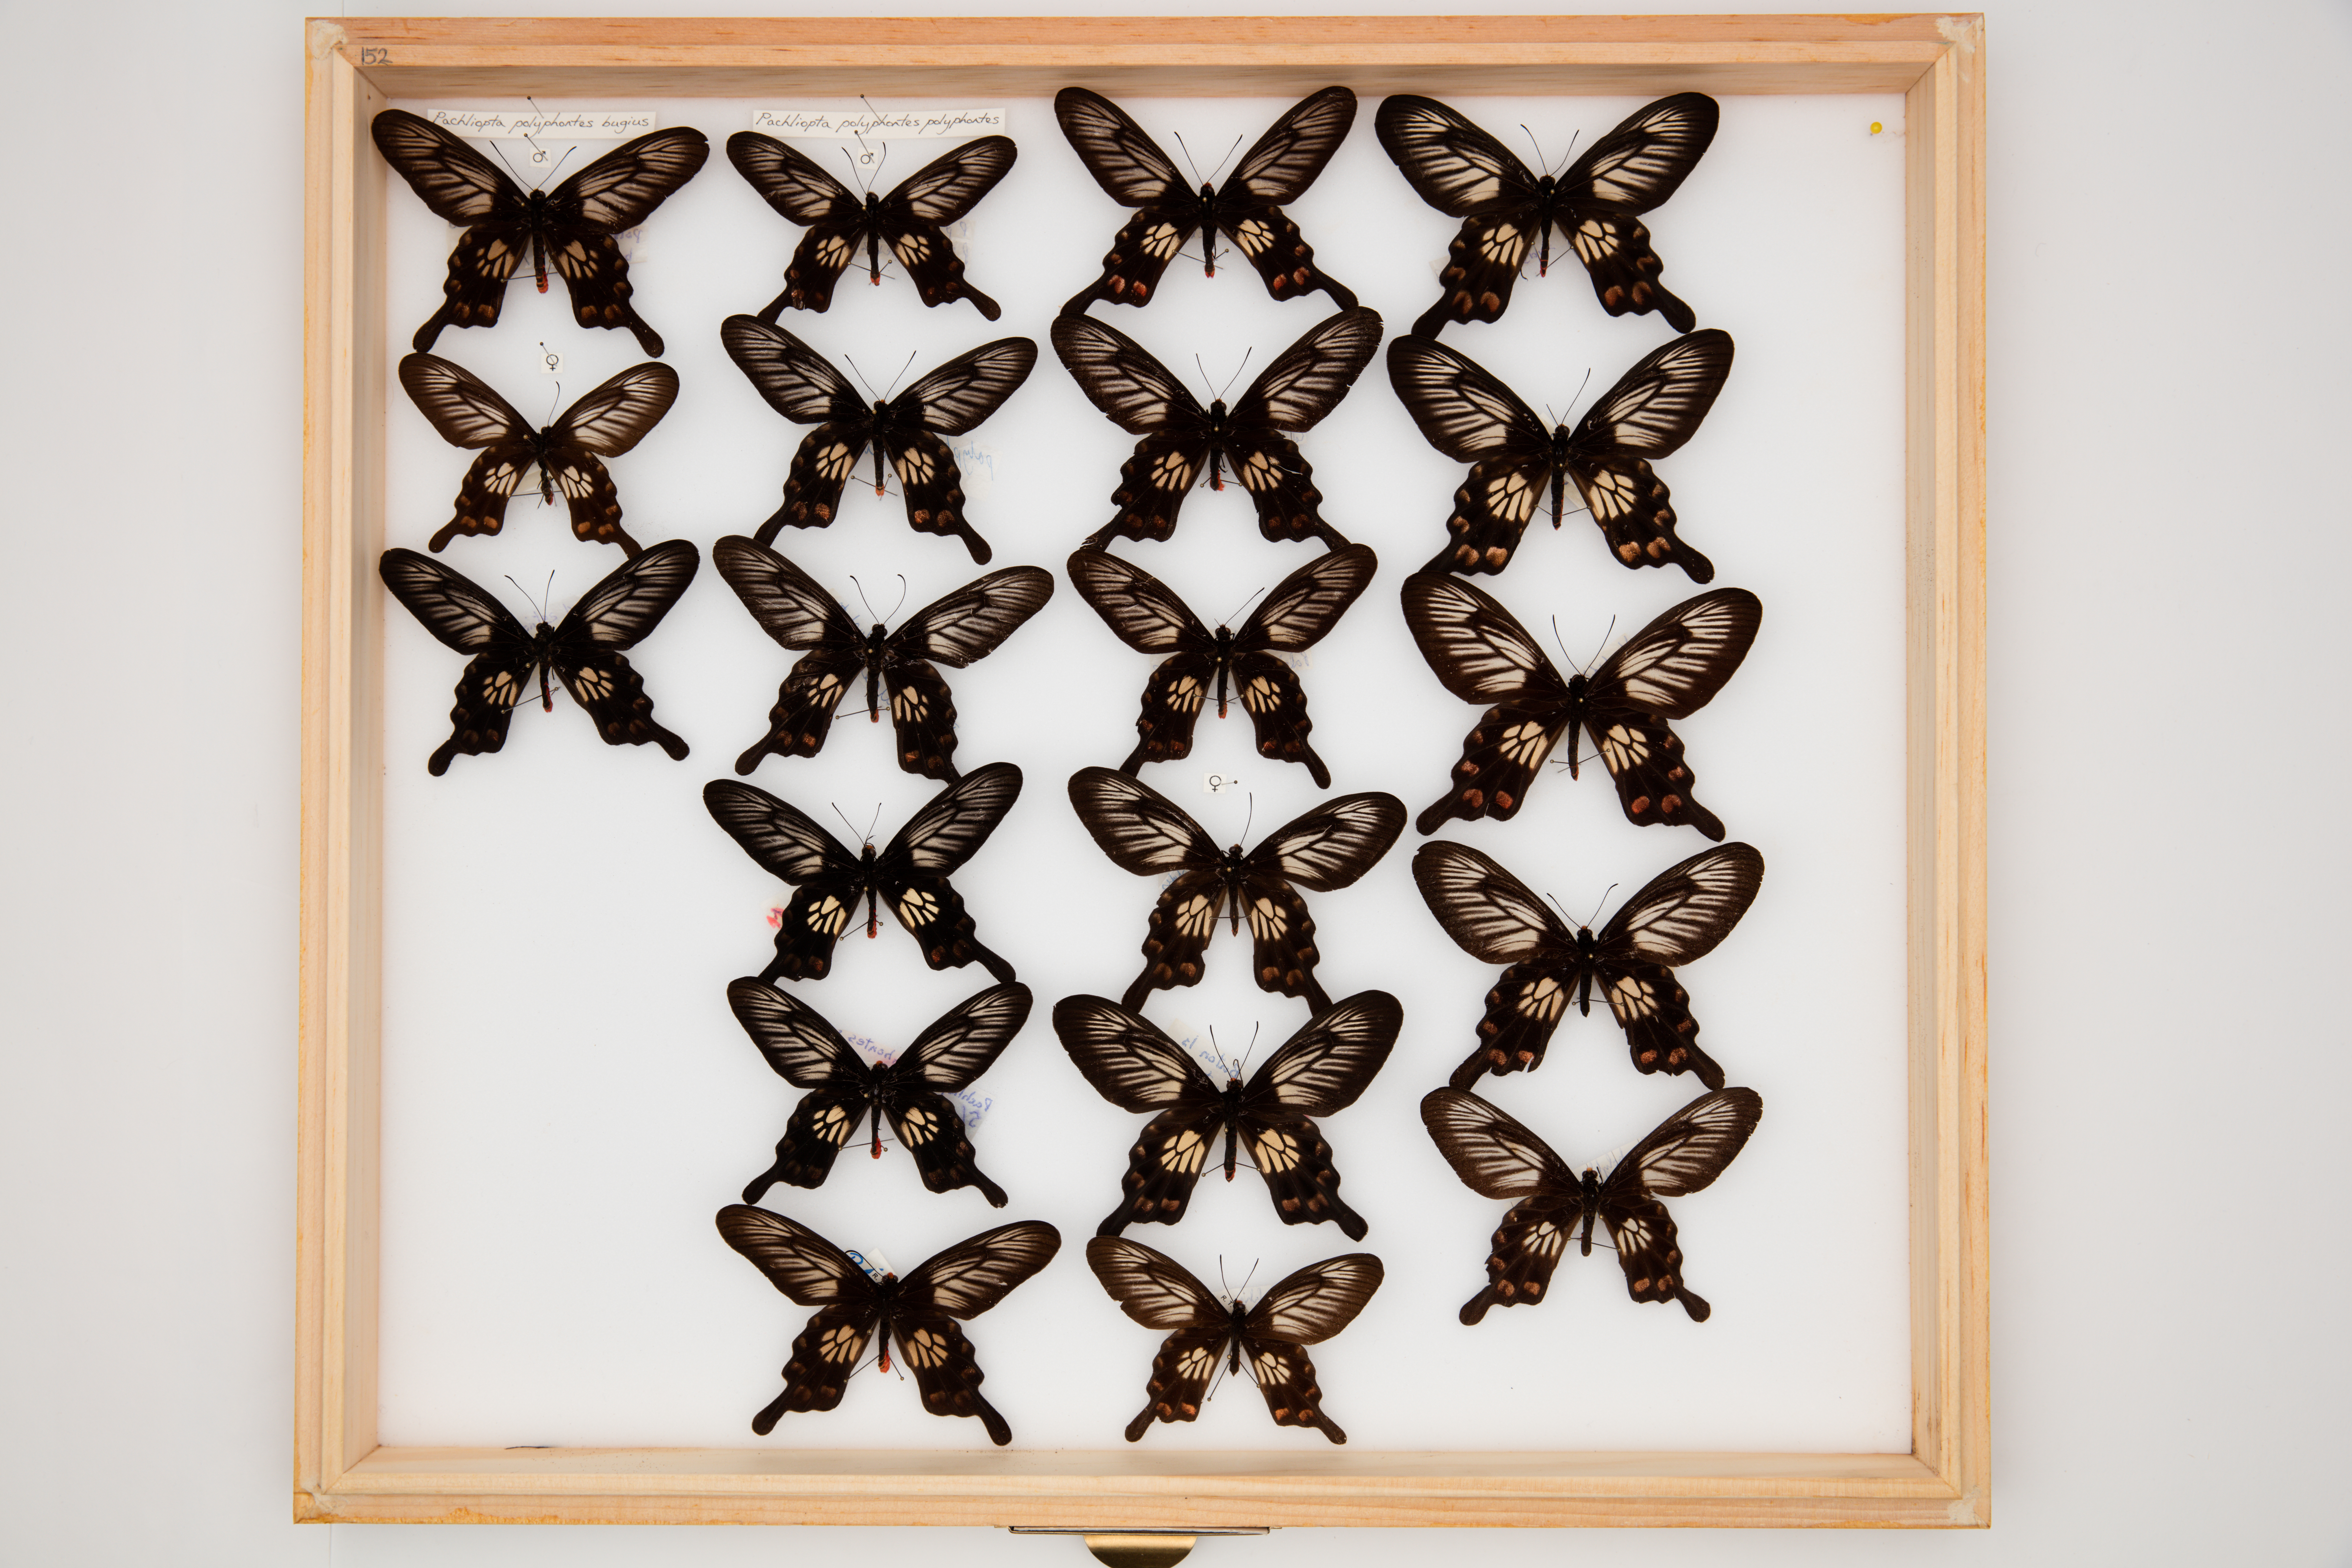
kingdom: Animalia
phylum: Arthropoda
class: Insecta
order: Lepidoptera
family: Papilionidae
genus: Pachliopta
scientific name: Pachliopta polyphontes
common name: Sulawesi rose
